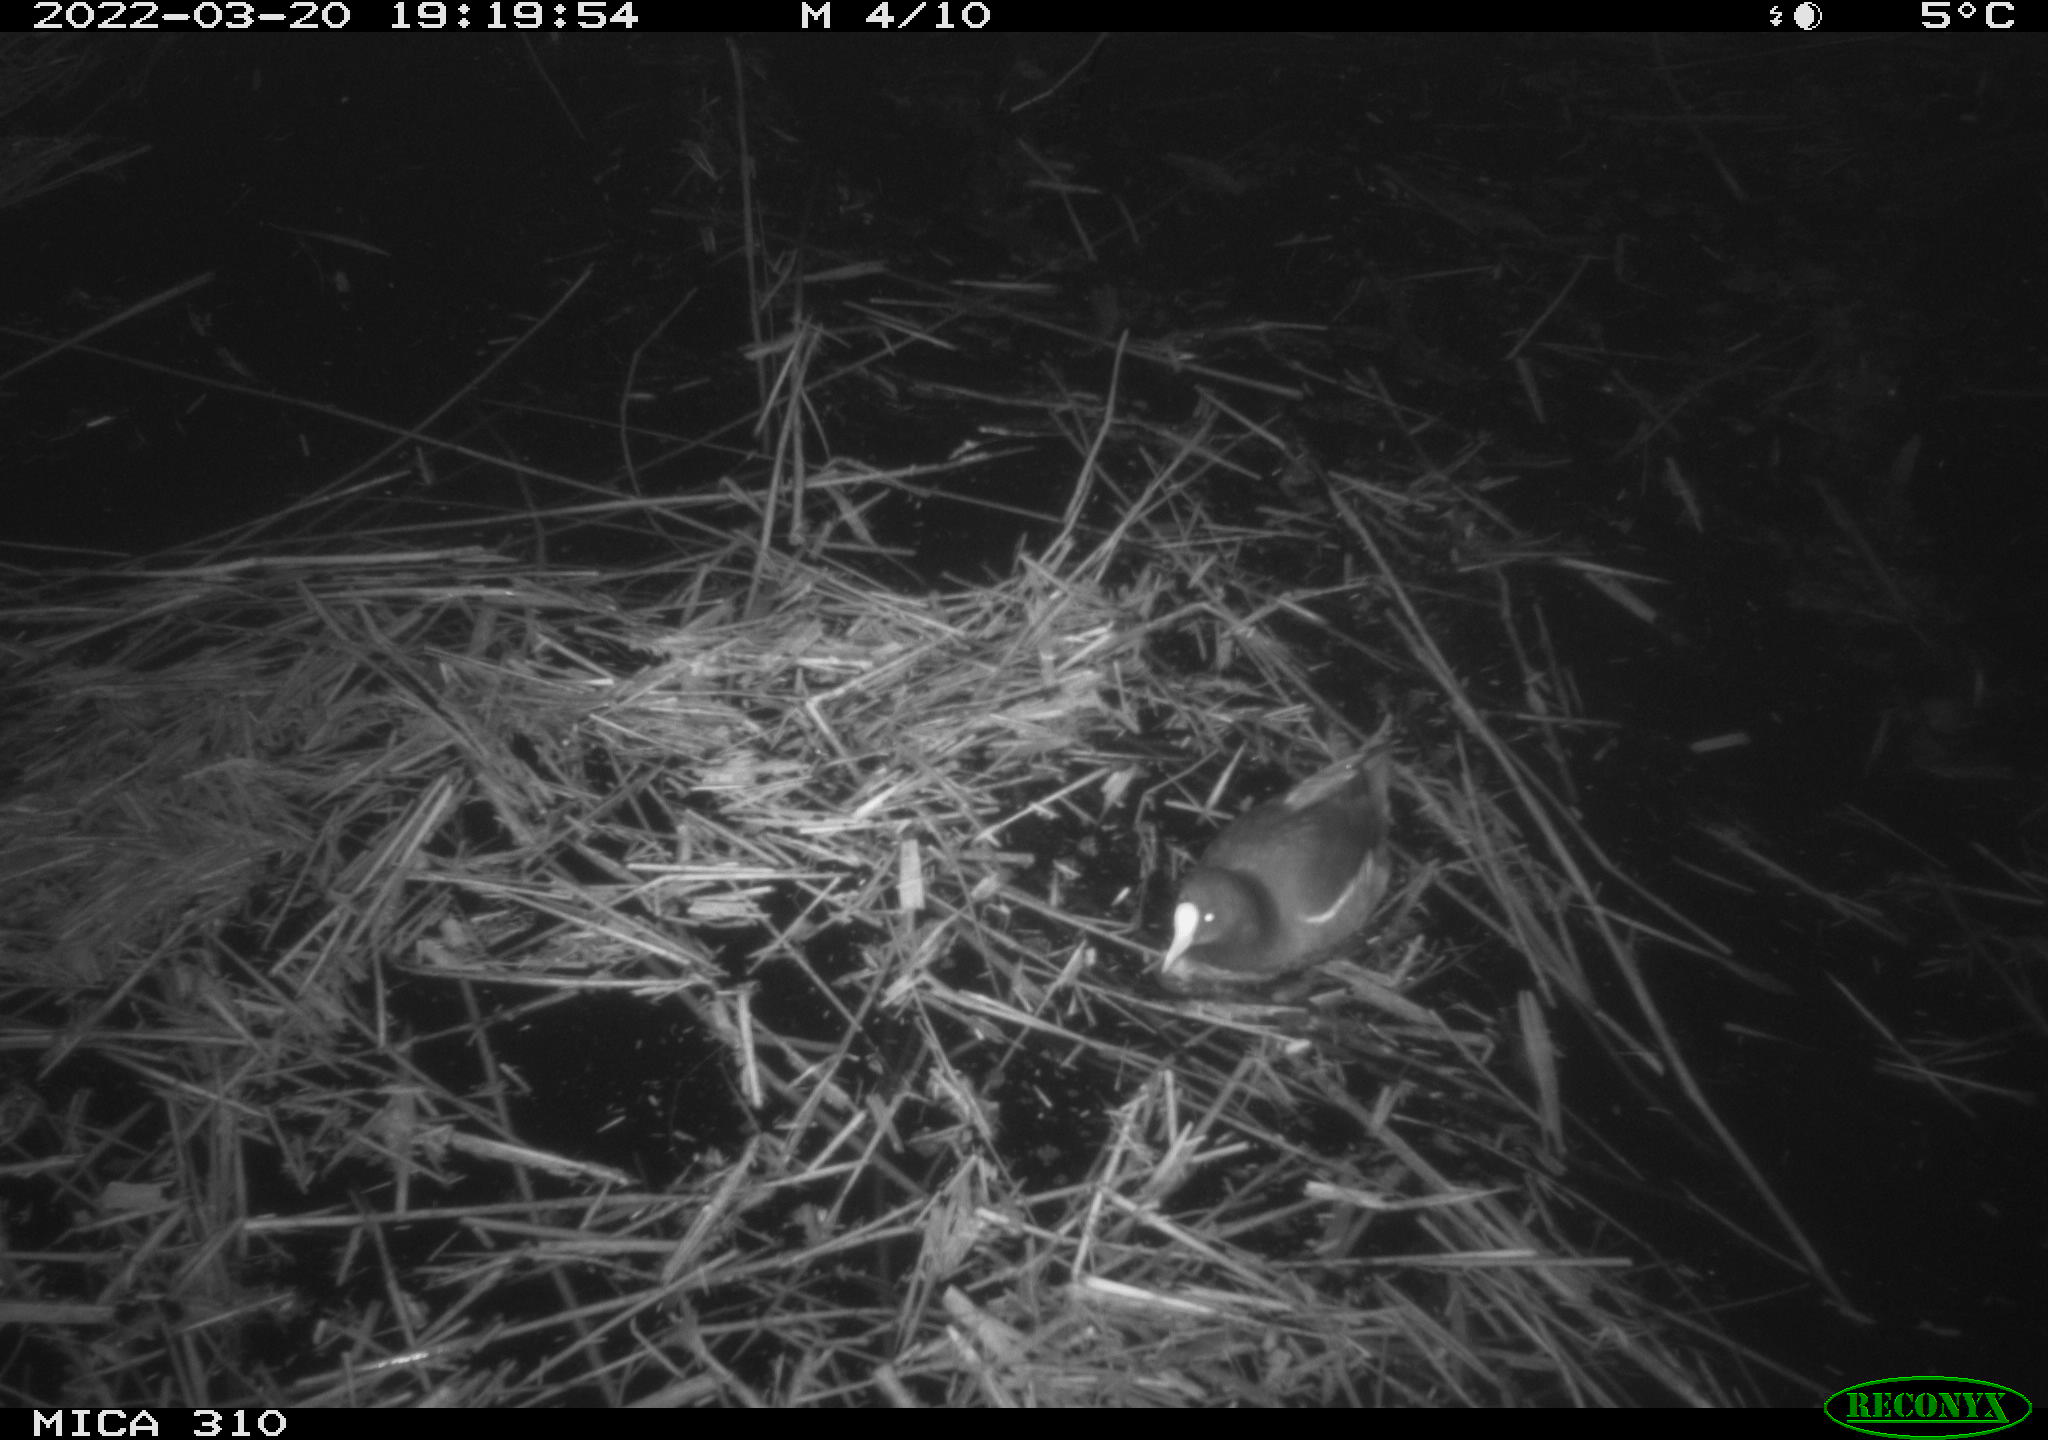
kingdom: Animalia
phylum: Chordata
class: Aves
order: Gruiformes
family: Rallidae
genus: Gallinula
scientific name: Gallinula chloropus
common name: Common moorhen
